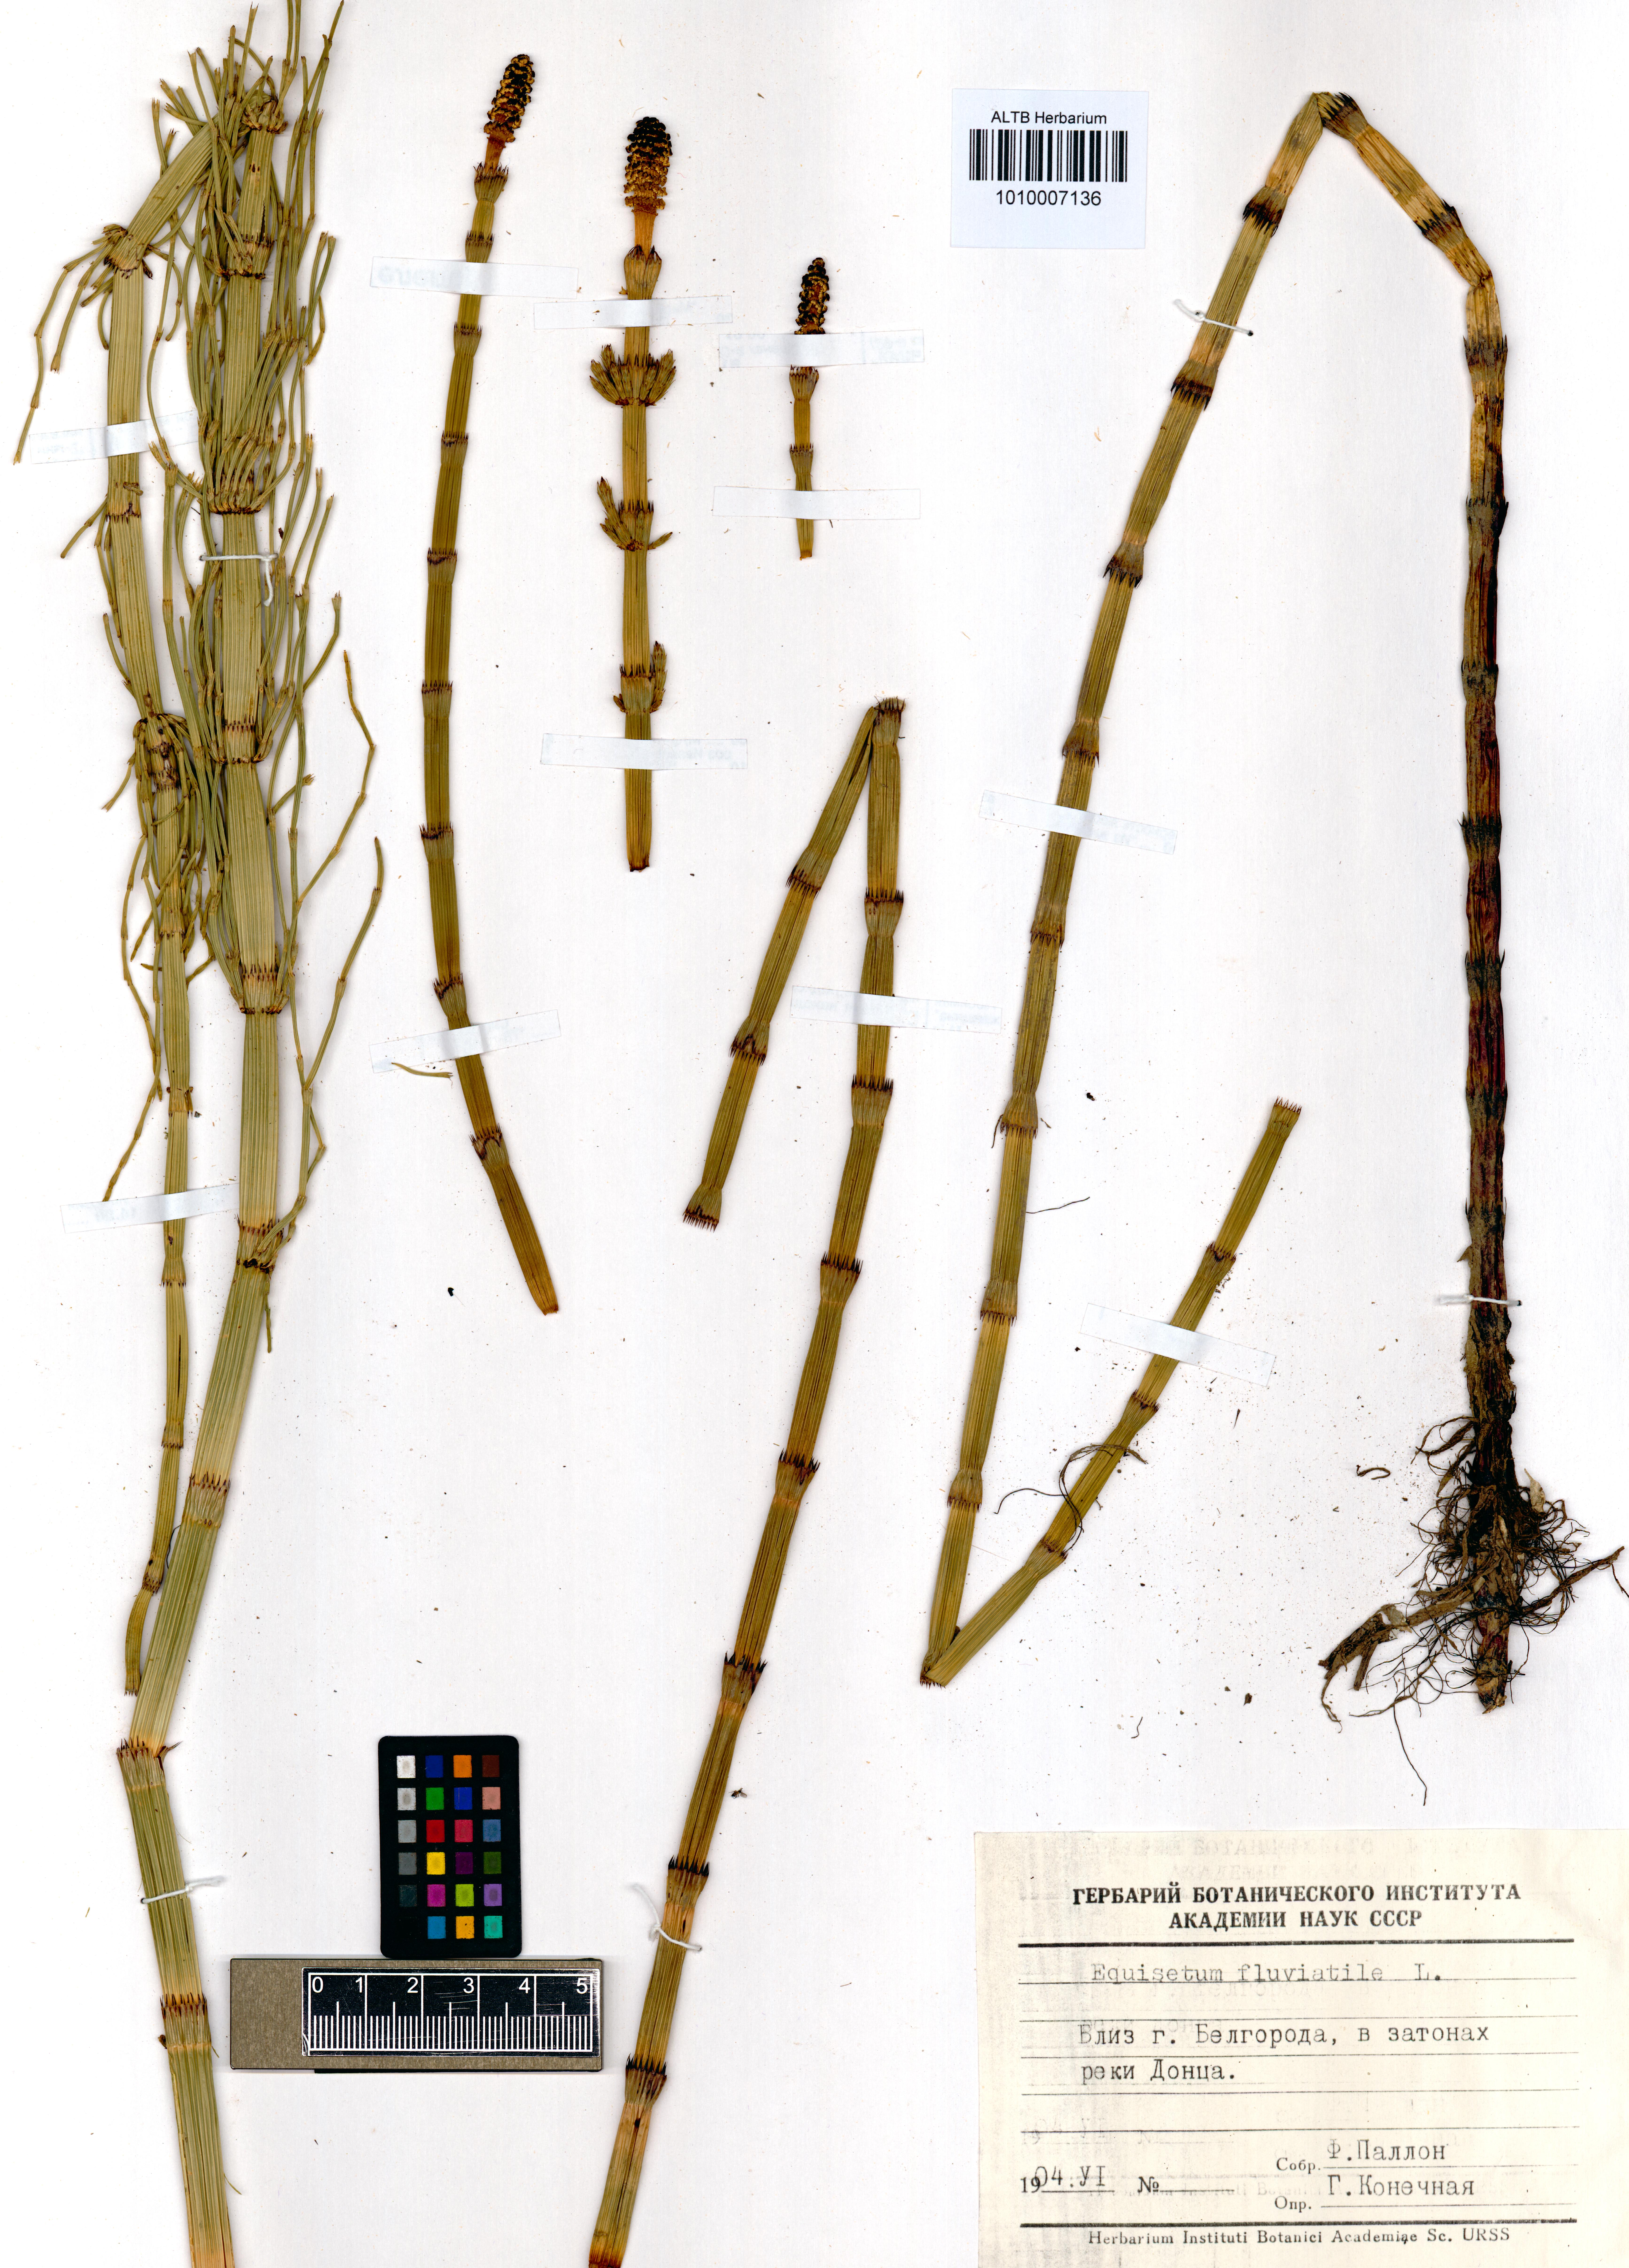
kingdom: Plantae
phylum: Tracheophyta
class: Polypodiopsida
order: Equisetales
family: Equisetaceae
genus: Equisetum
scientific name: Equisetum fluviatile
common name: Water horsetail
